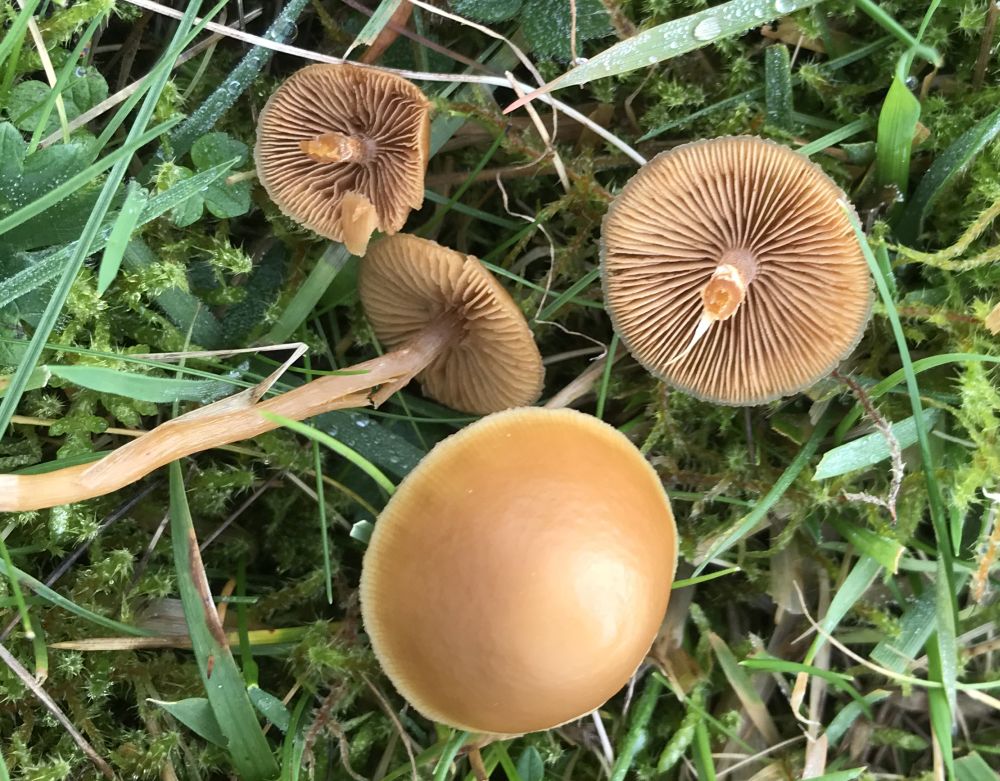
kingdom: Fungi
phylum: Basidiomycota
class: Agaricomycetes
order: Agaricales
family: Hymenogastraceae
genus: Galerina
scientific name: Galerina
